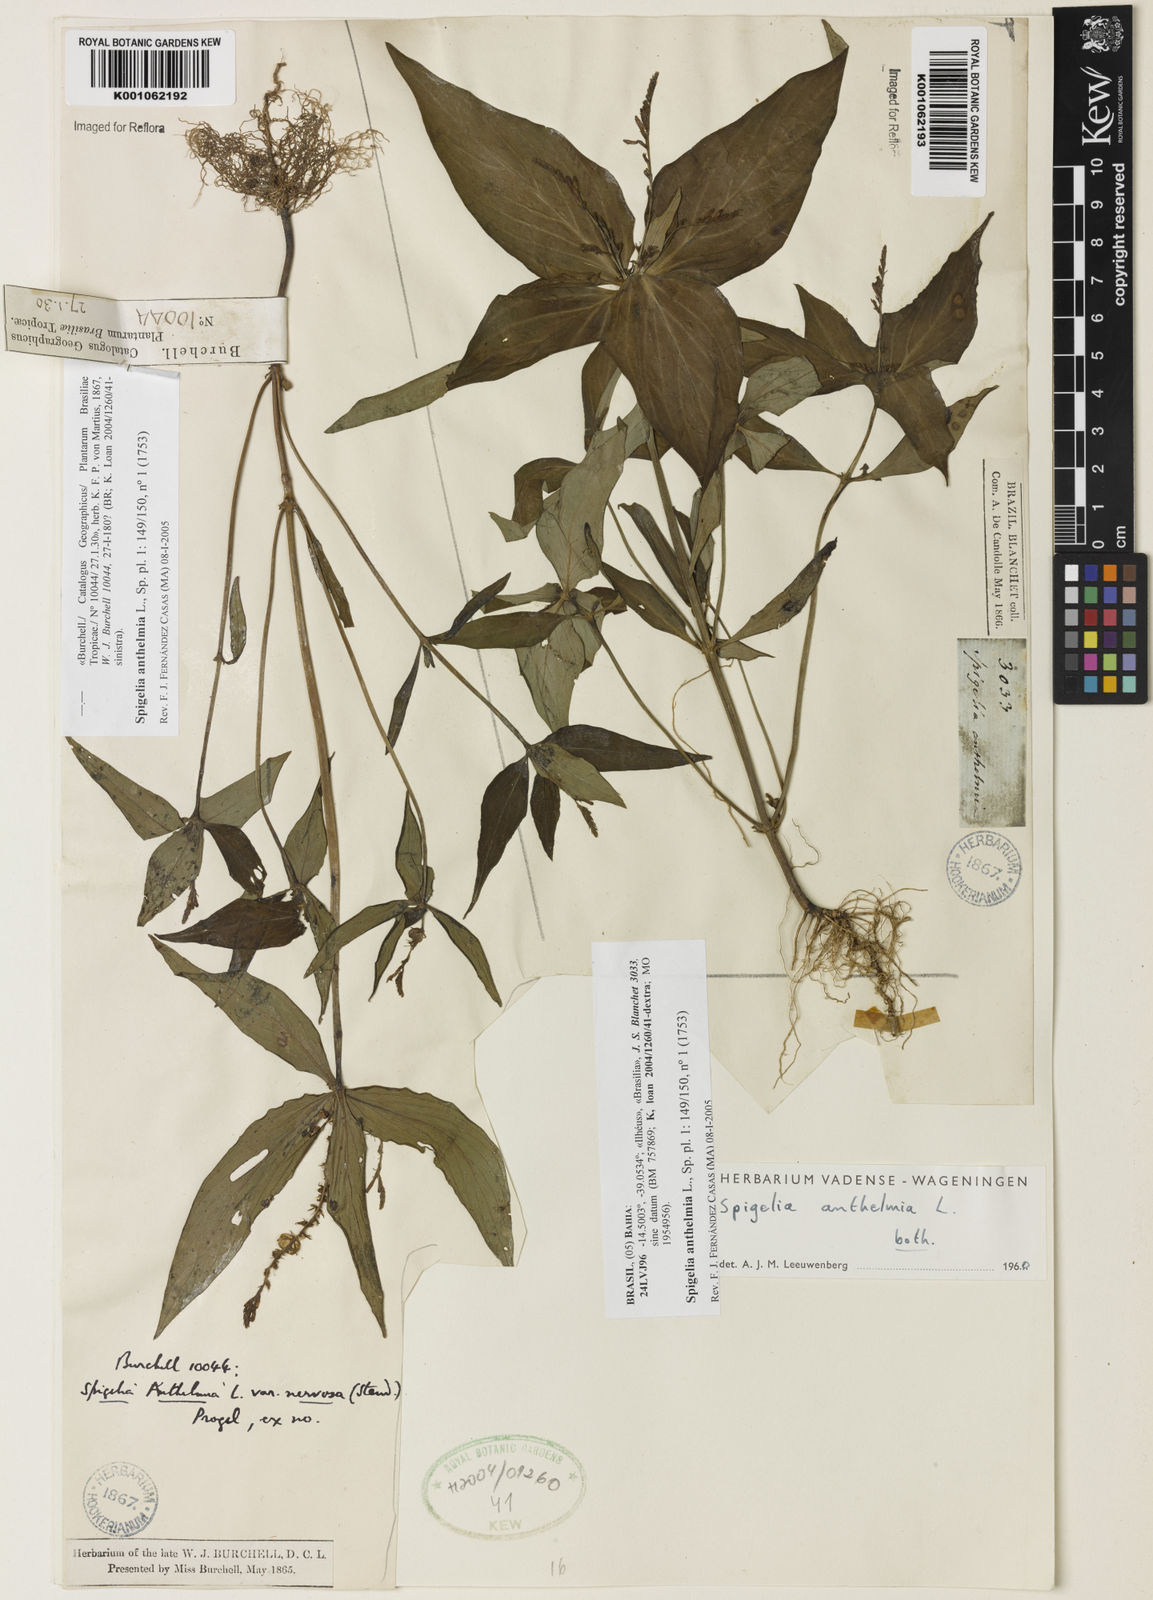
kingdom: Plantae
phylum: Tracheophyta
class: Magnoliopsida
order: Gentianales
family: Loganiaceae
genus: Spigelia
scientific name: Spigelia anthelmia
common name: West indian-pink
